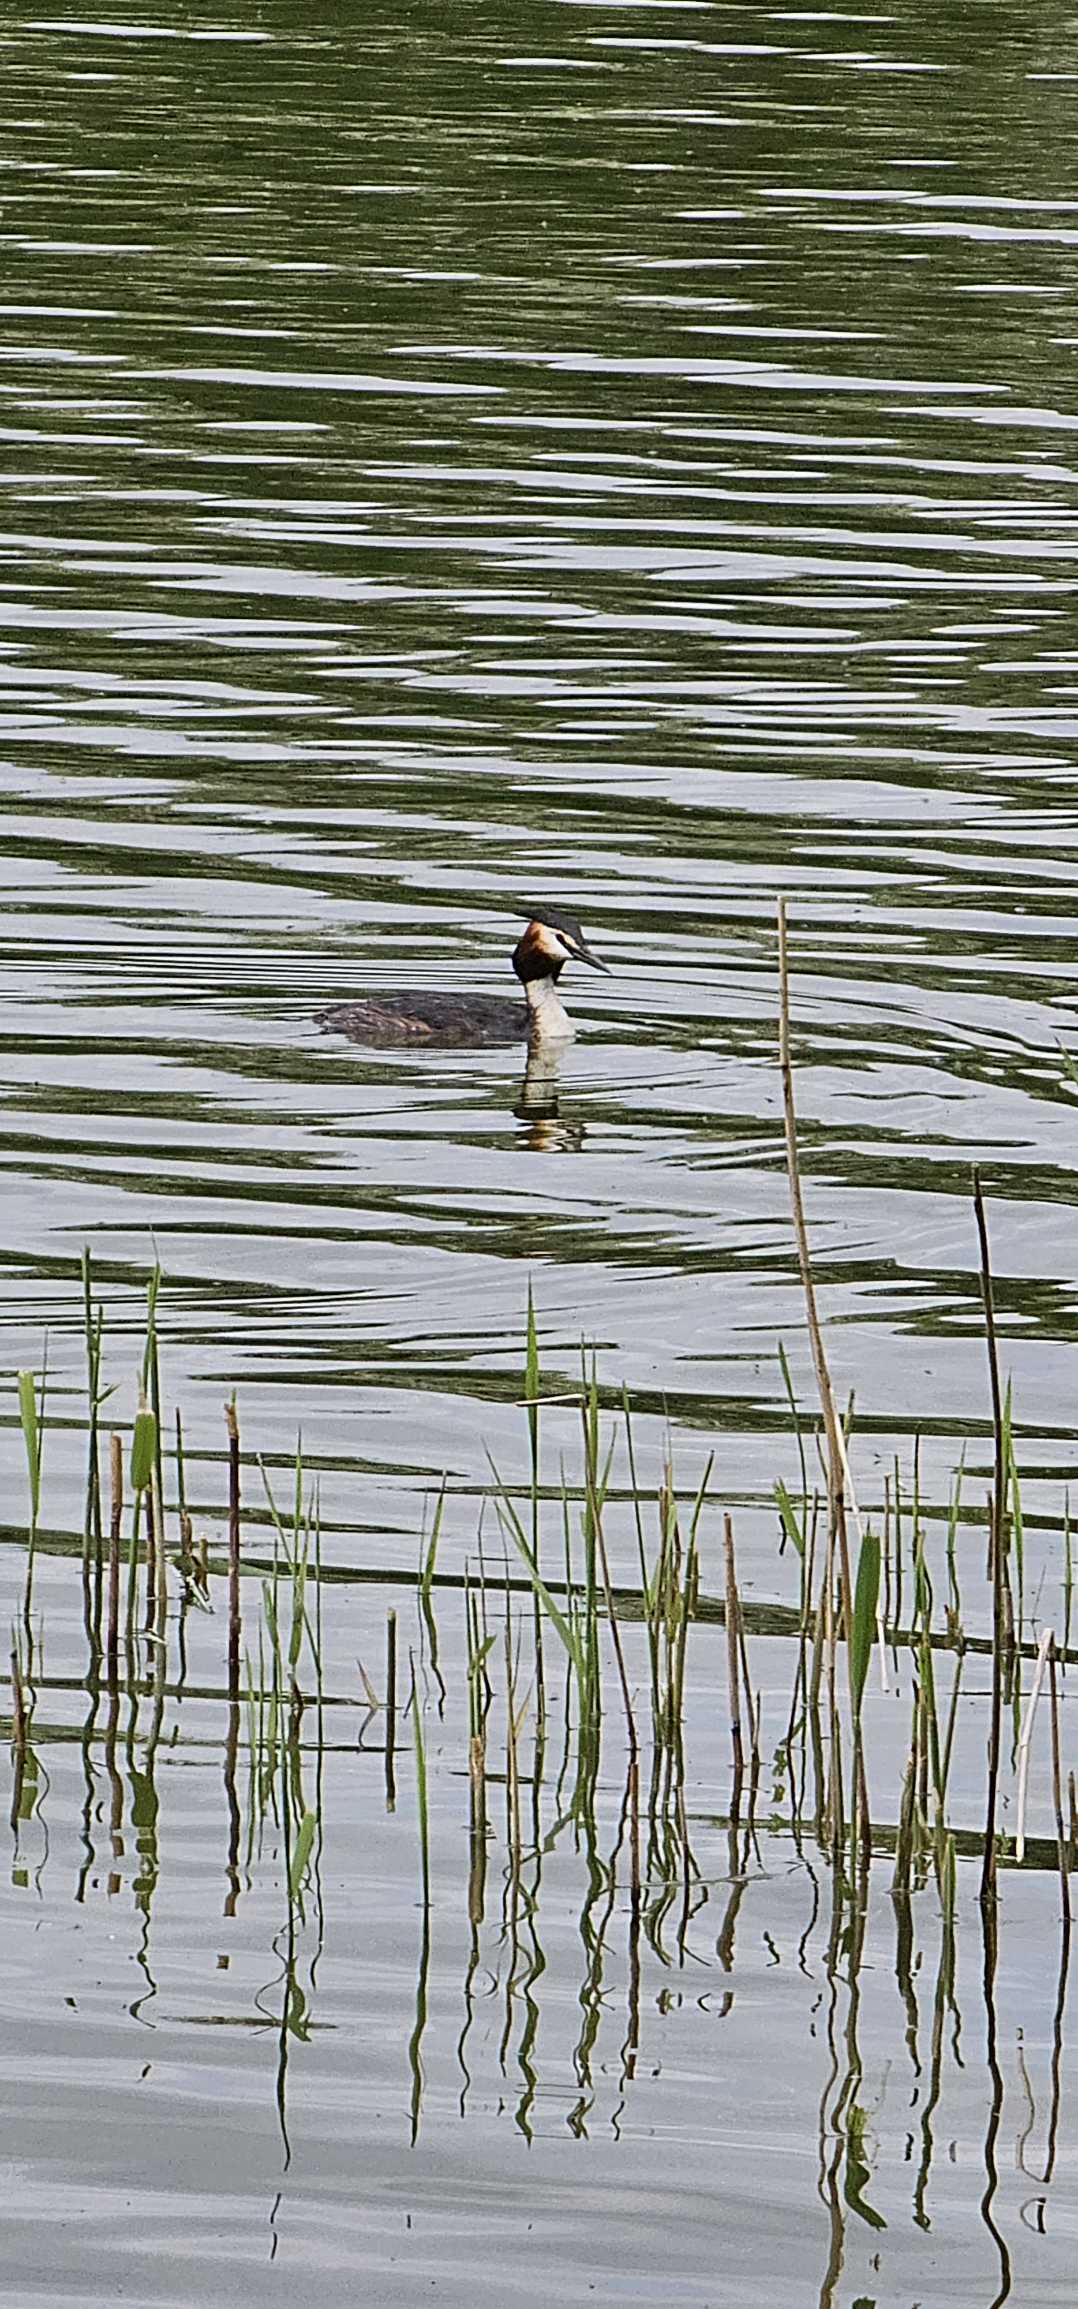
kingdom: Animalia
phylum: Chordata
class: Aves
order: Podicipediformes
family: Podicipedidae
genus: Podiceps
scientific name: Podiceps cristatus
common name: Toppet lappedykker
